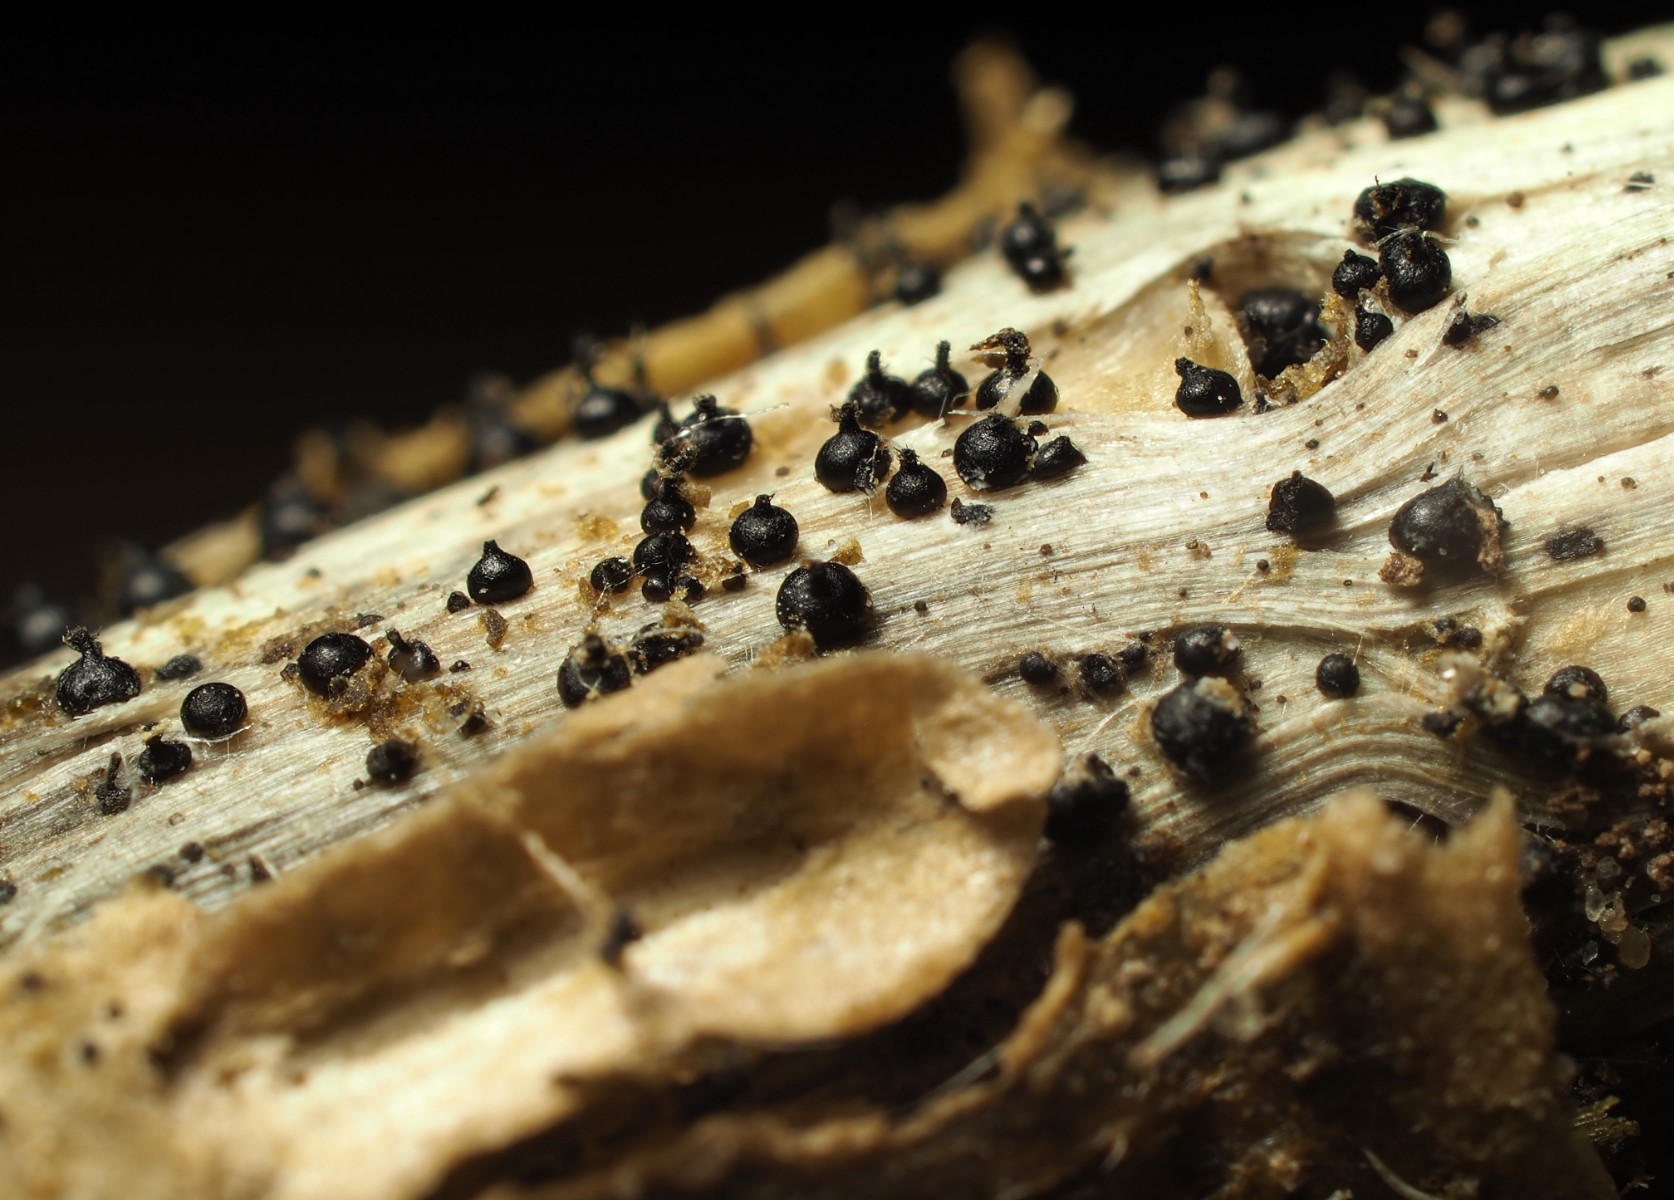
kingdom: Fungi
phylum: Ascomycota
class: Dothideomycetes
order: Pleosporales
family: Leptosphaeriaceae
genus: Leptosphaeria
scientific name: Leptosphaeria acuta
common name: spids kulkegle
